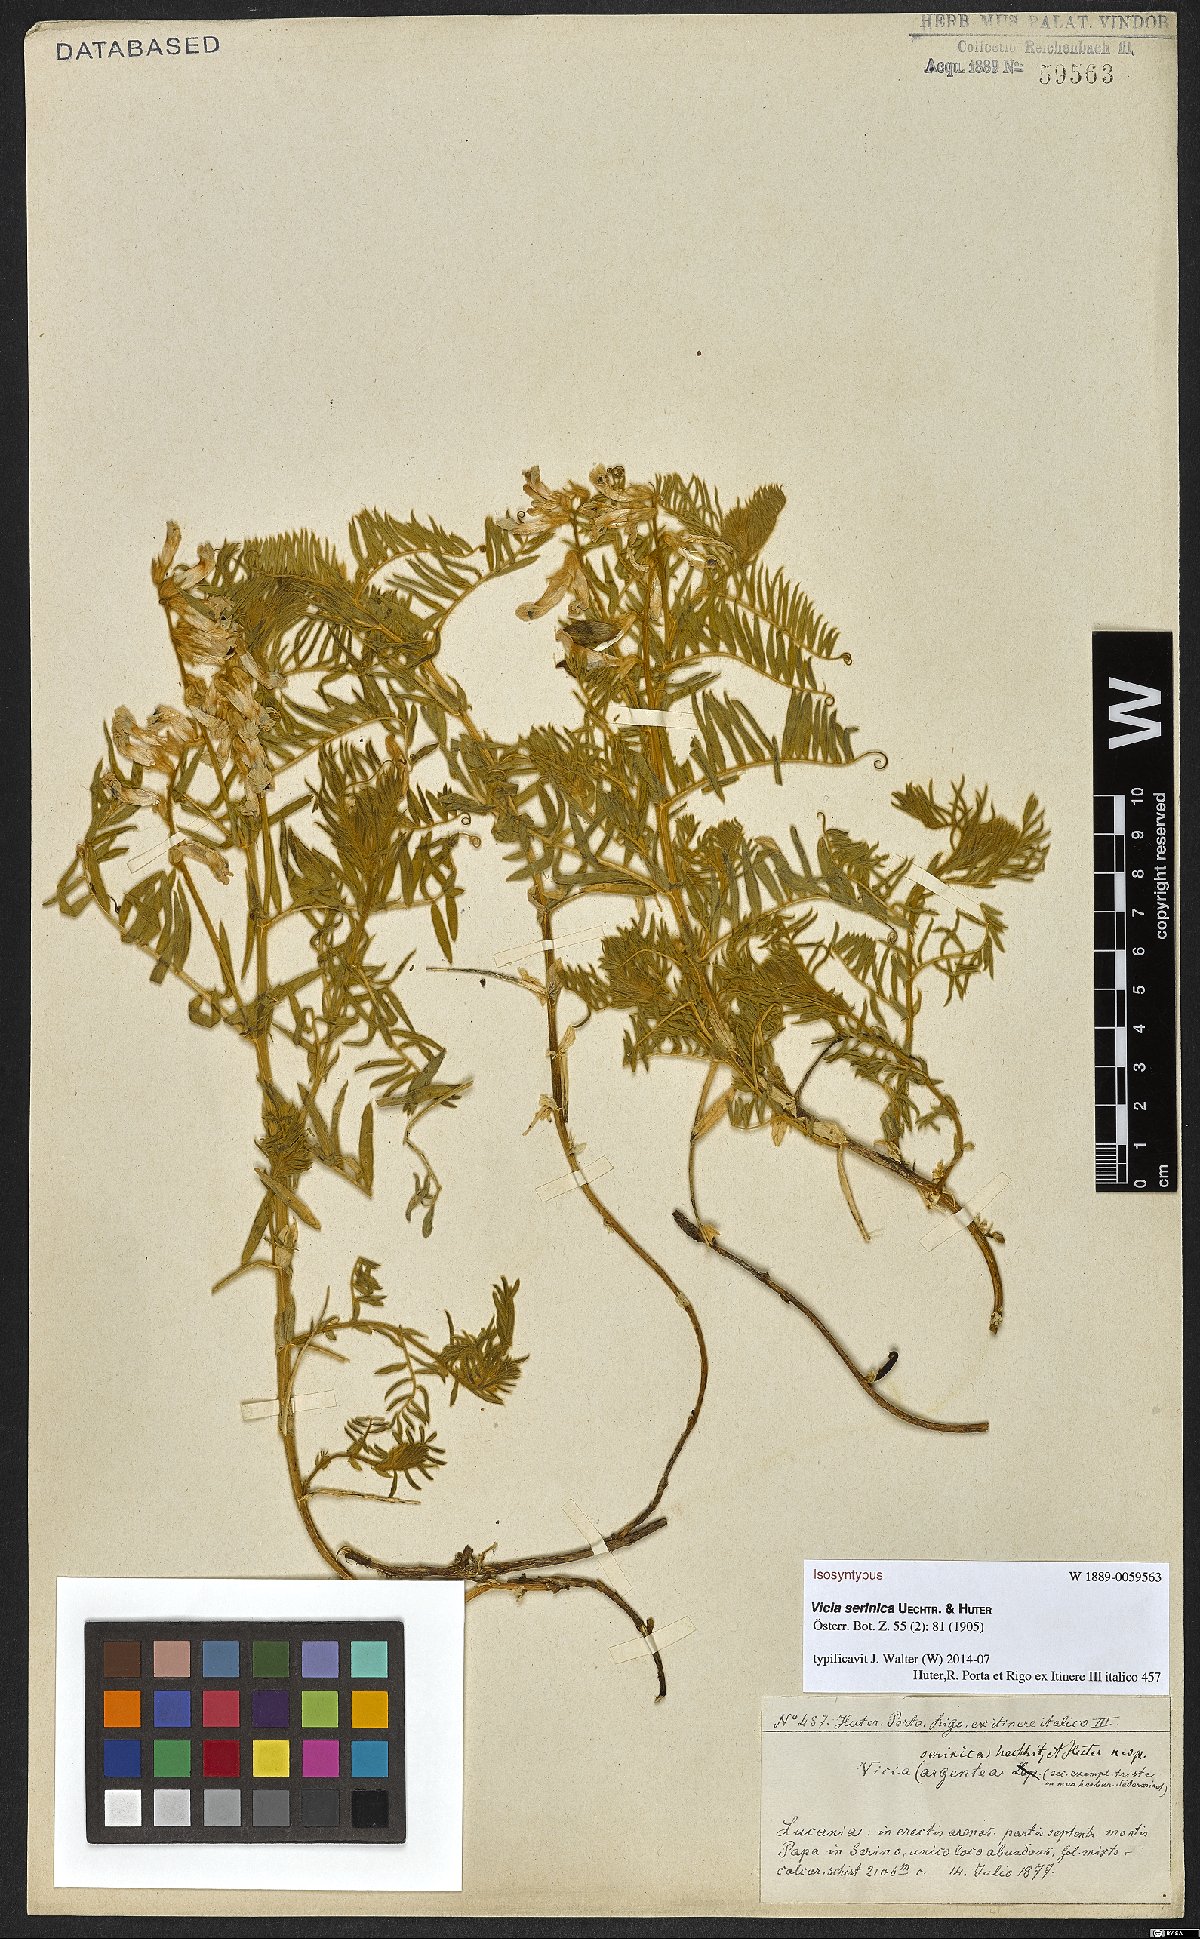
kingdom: Plantae
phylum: Tracheophyta
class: Magnoliopsida
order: Fabales
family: Fabaceae
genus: Vicia
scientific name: Vicia canescens
